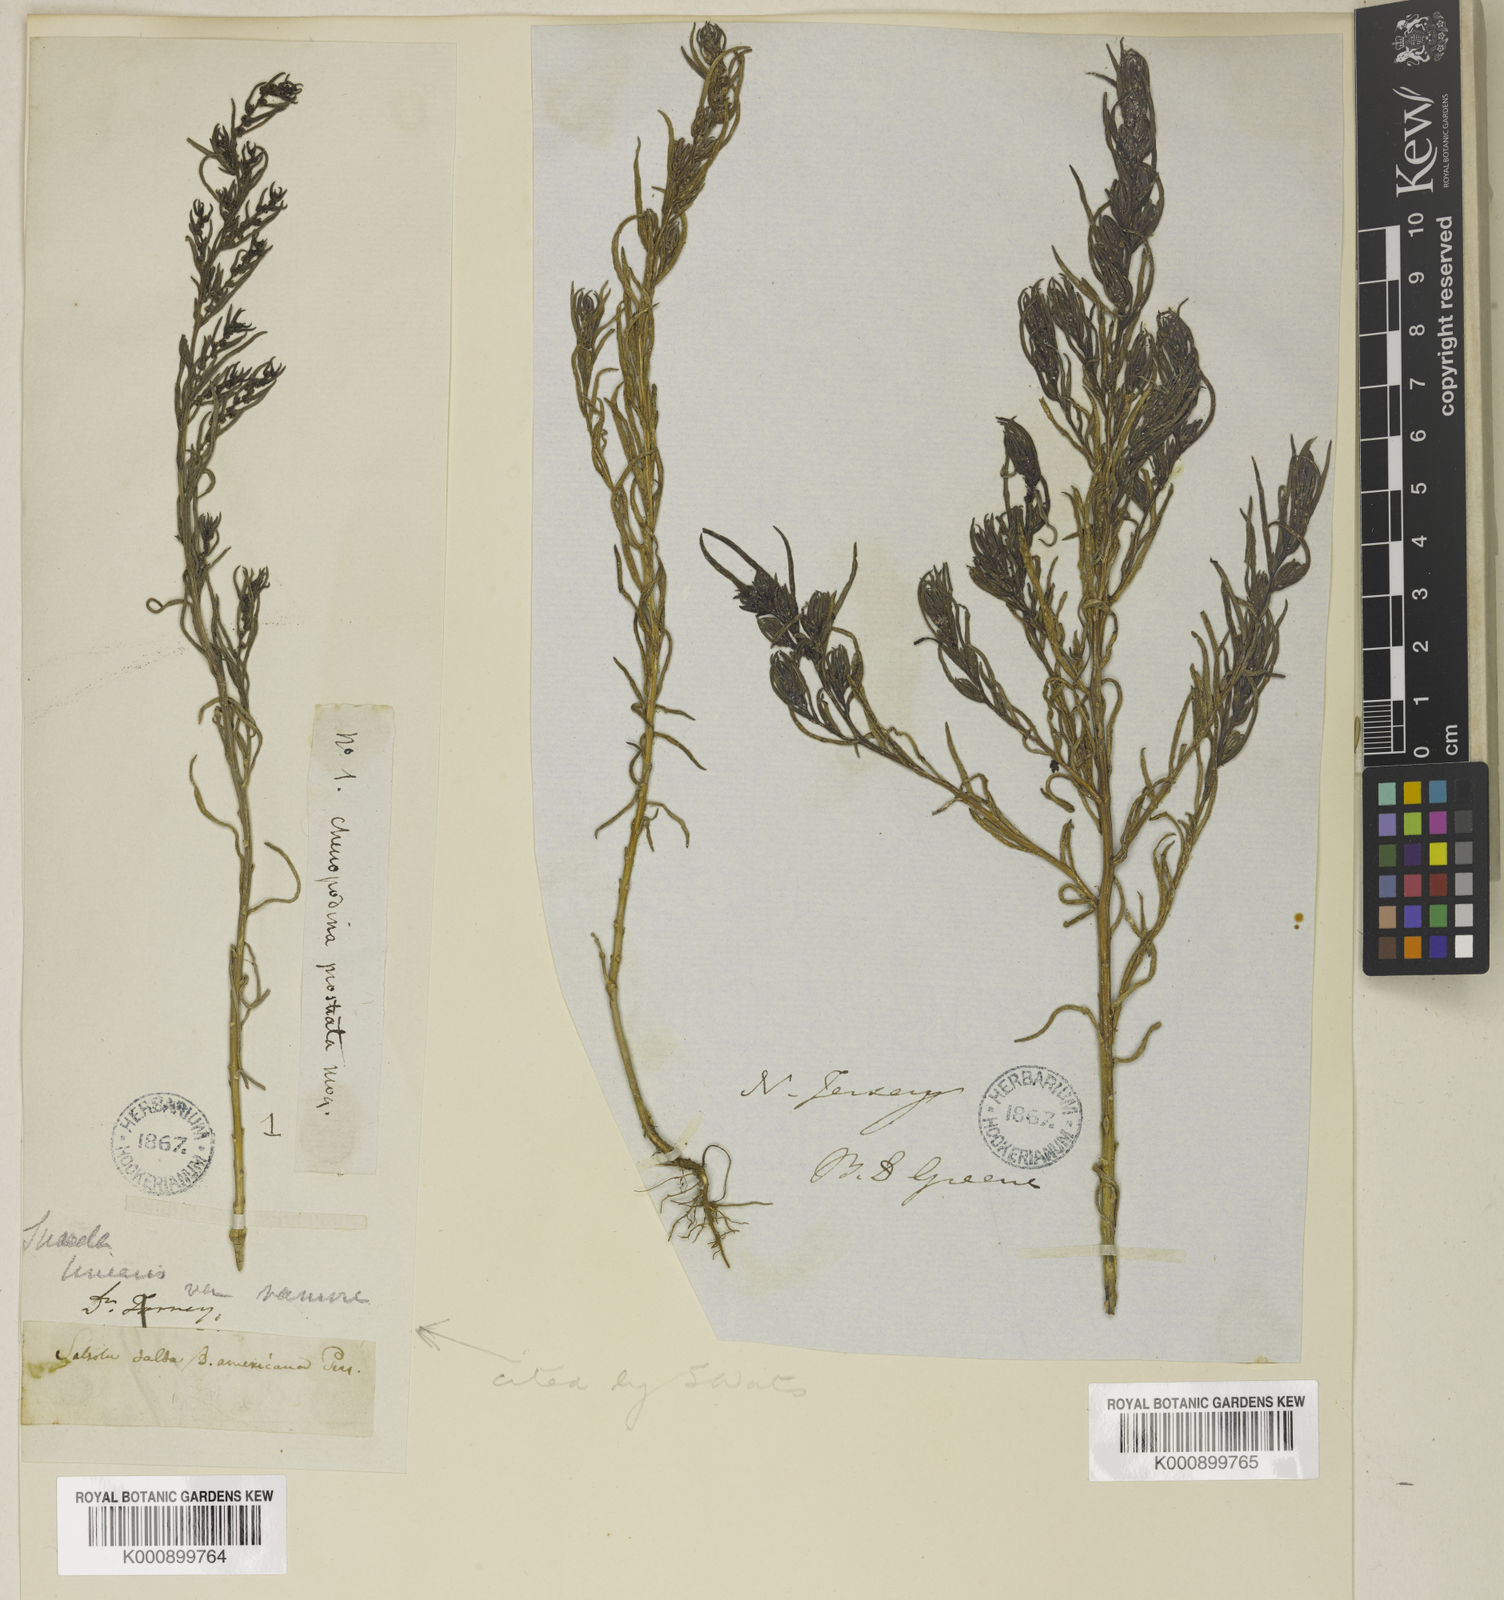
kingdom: Plantae
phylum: Tracheophyta
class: Magnoliopsida
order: Caryophyllales
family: Amaranthaceae
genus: Suaeda
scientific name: Suaeda linearis
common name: Annual seepweed
